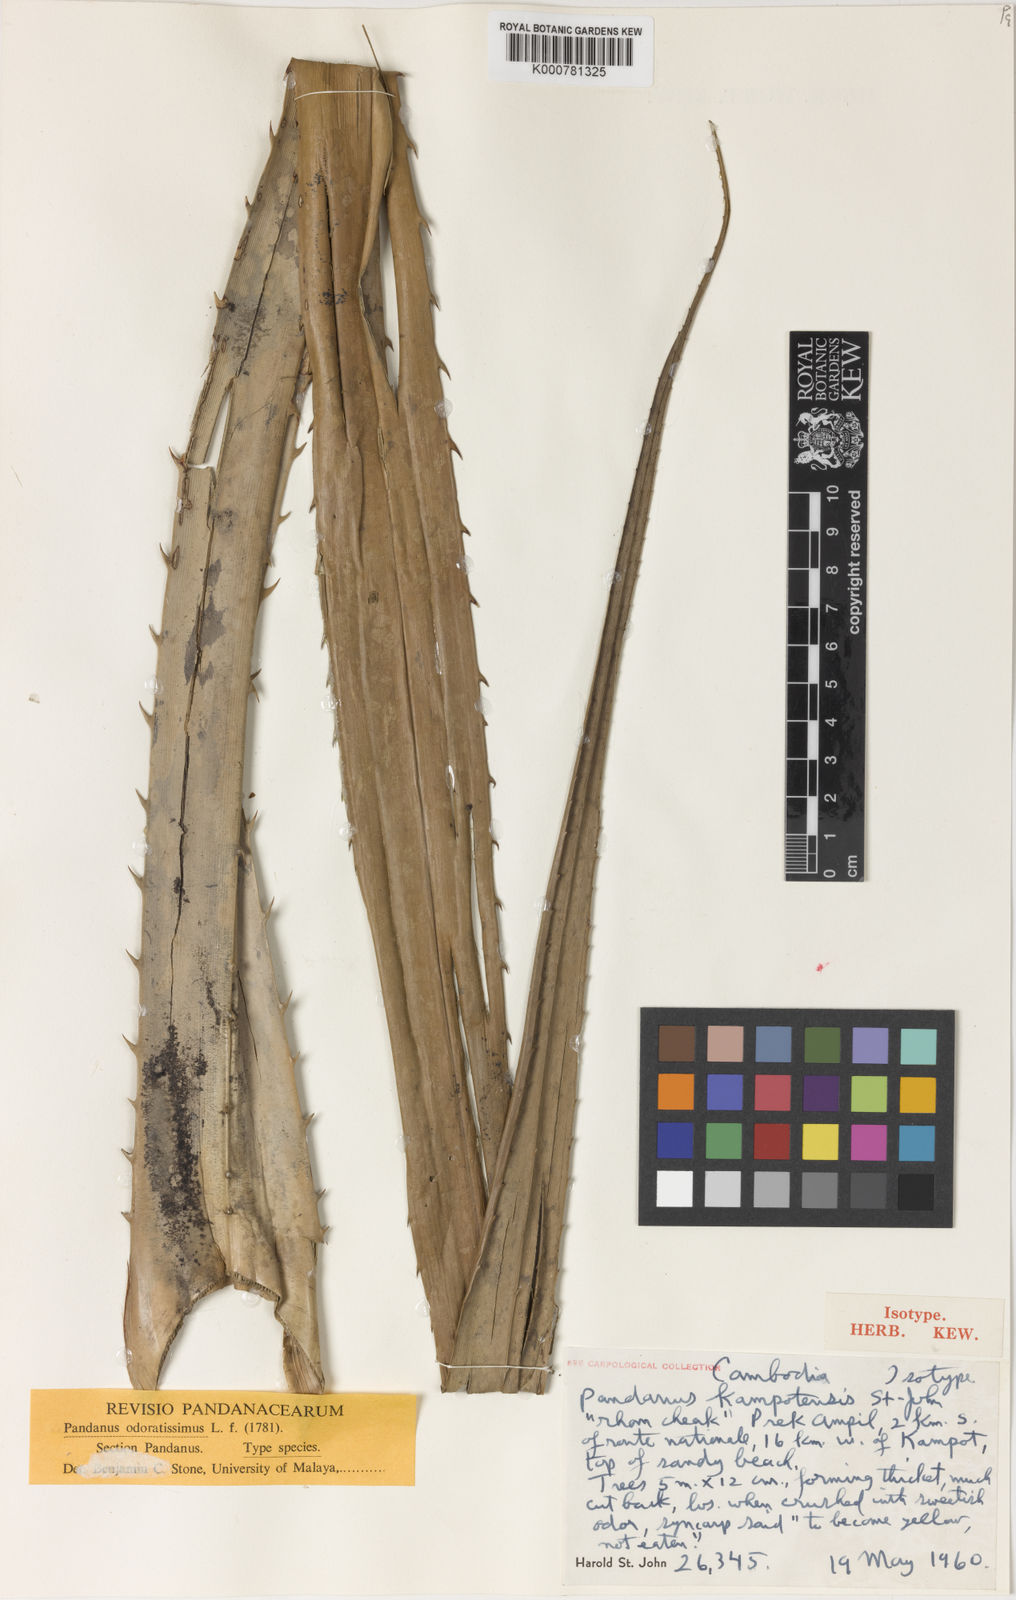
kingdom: Plantae
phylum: Tracheophyta
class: Liliopsida
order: Pandanales
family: Pandanaceae
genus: Pandanus
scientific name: Pandanus
